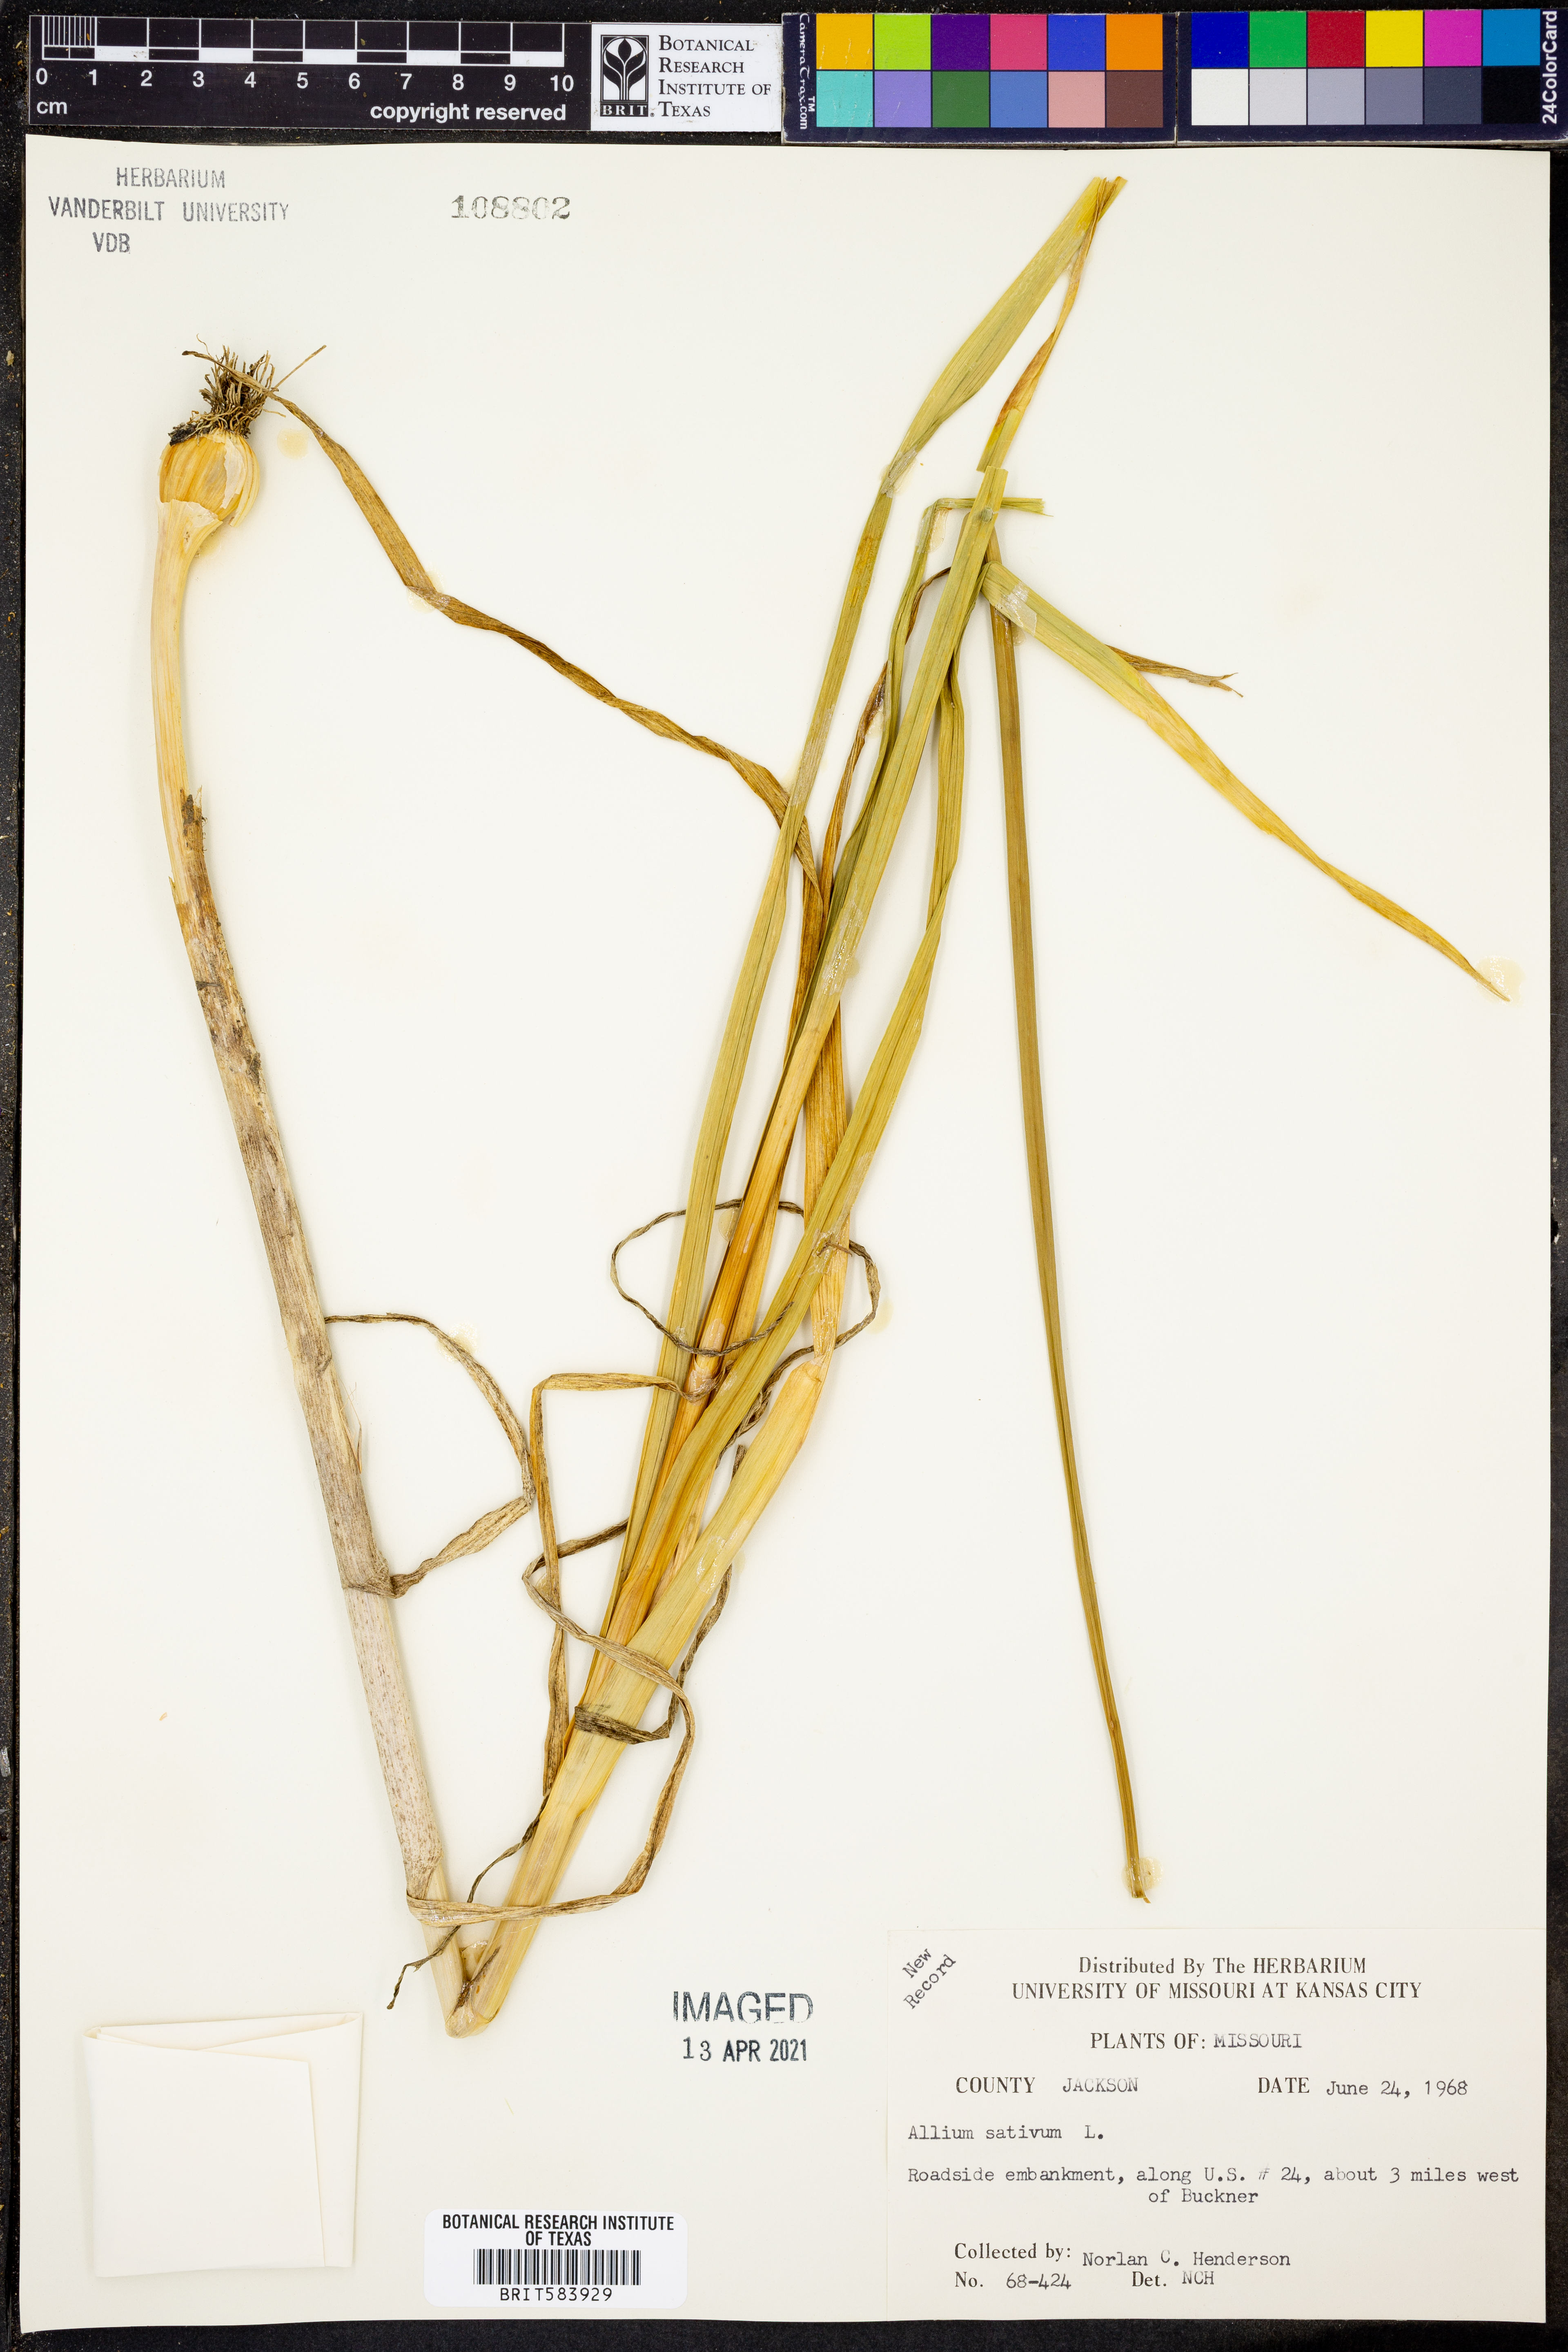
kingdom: Plantae
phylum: Tracheophyta
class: Liliopsida
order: Asparagales
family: Amaryllidaceae
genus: Allium
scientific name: Allium sativum
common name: Garlic
